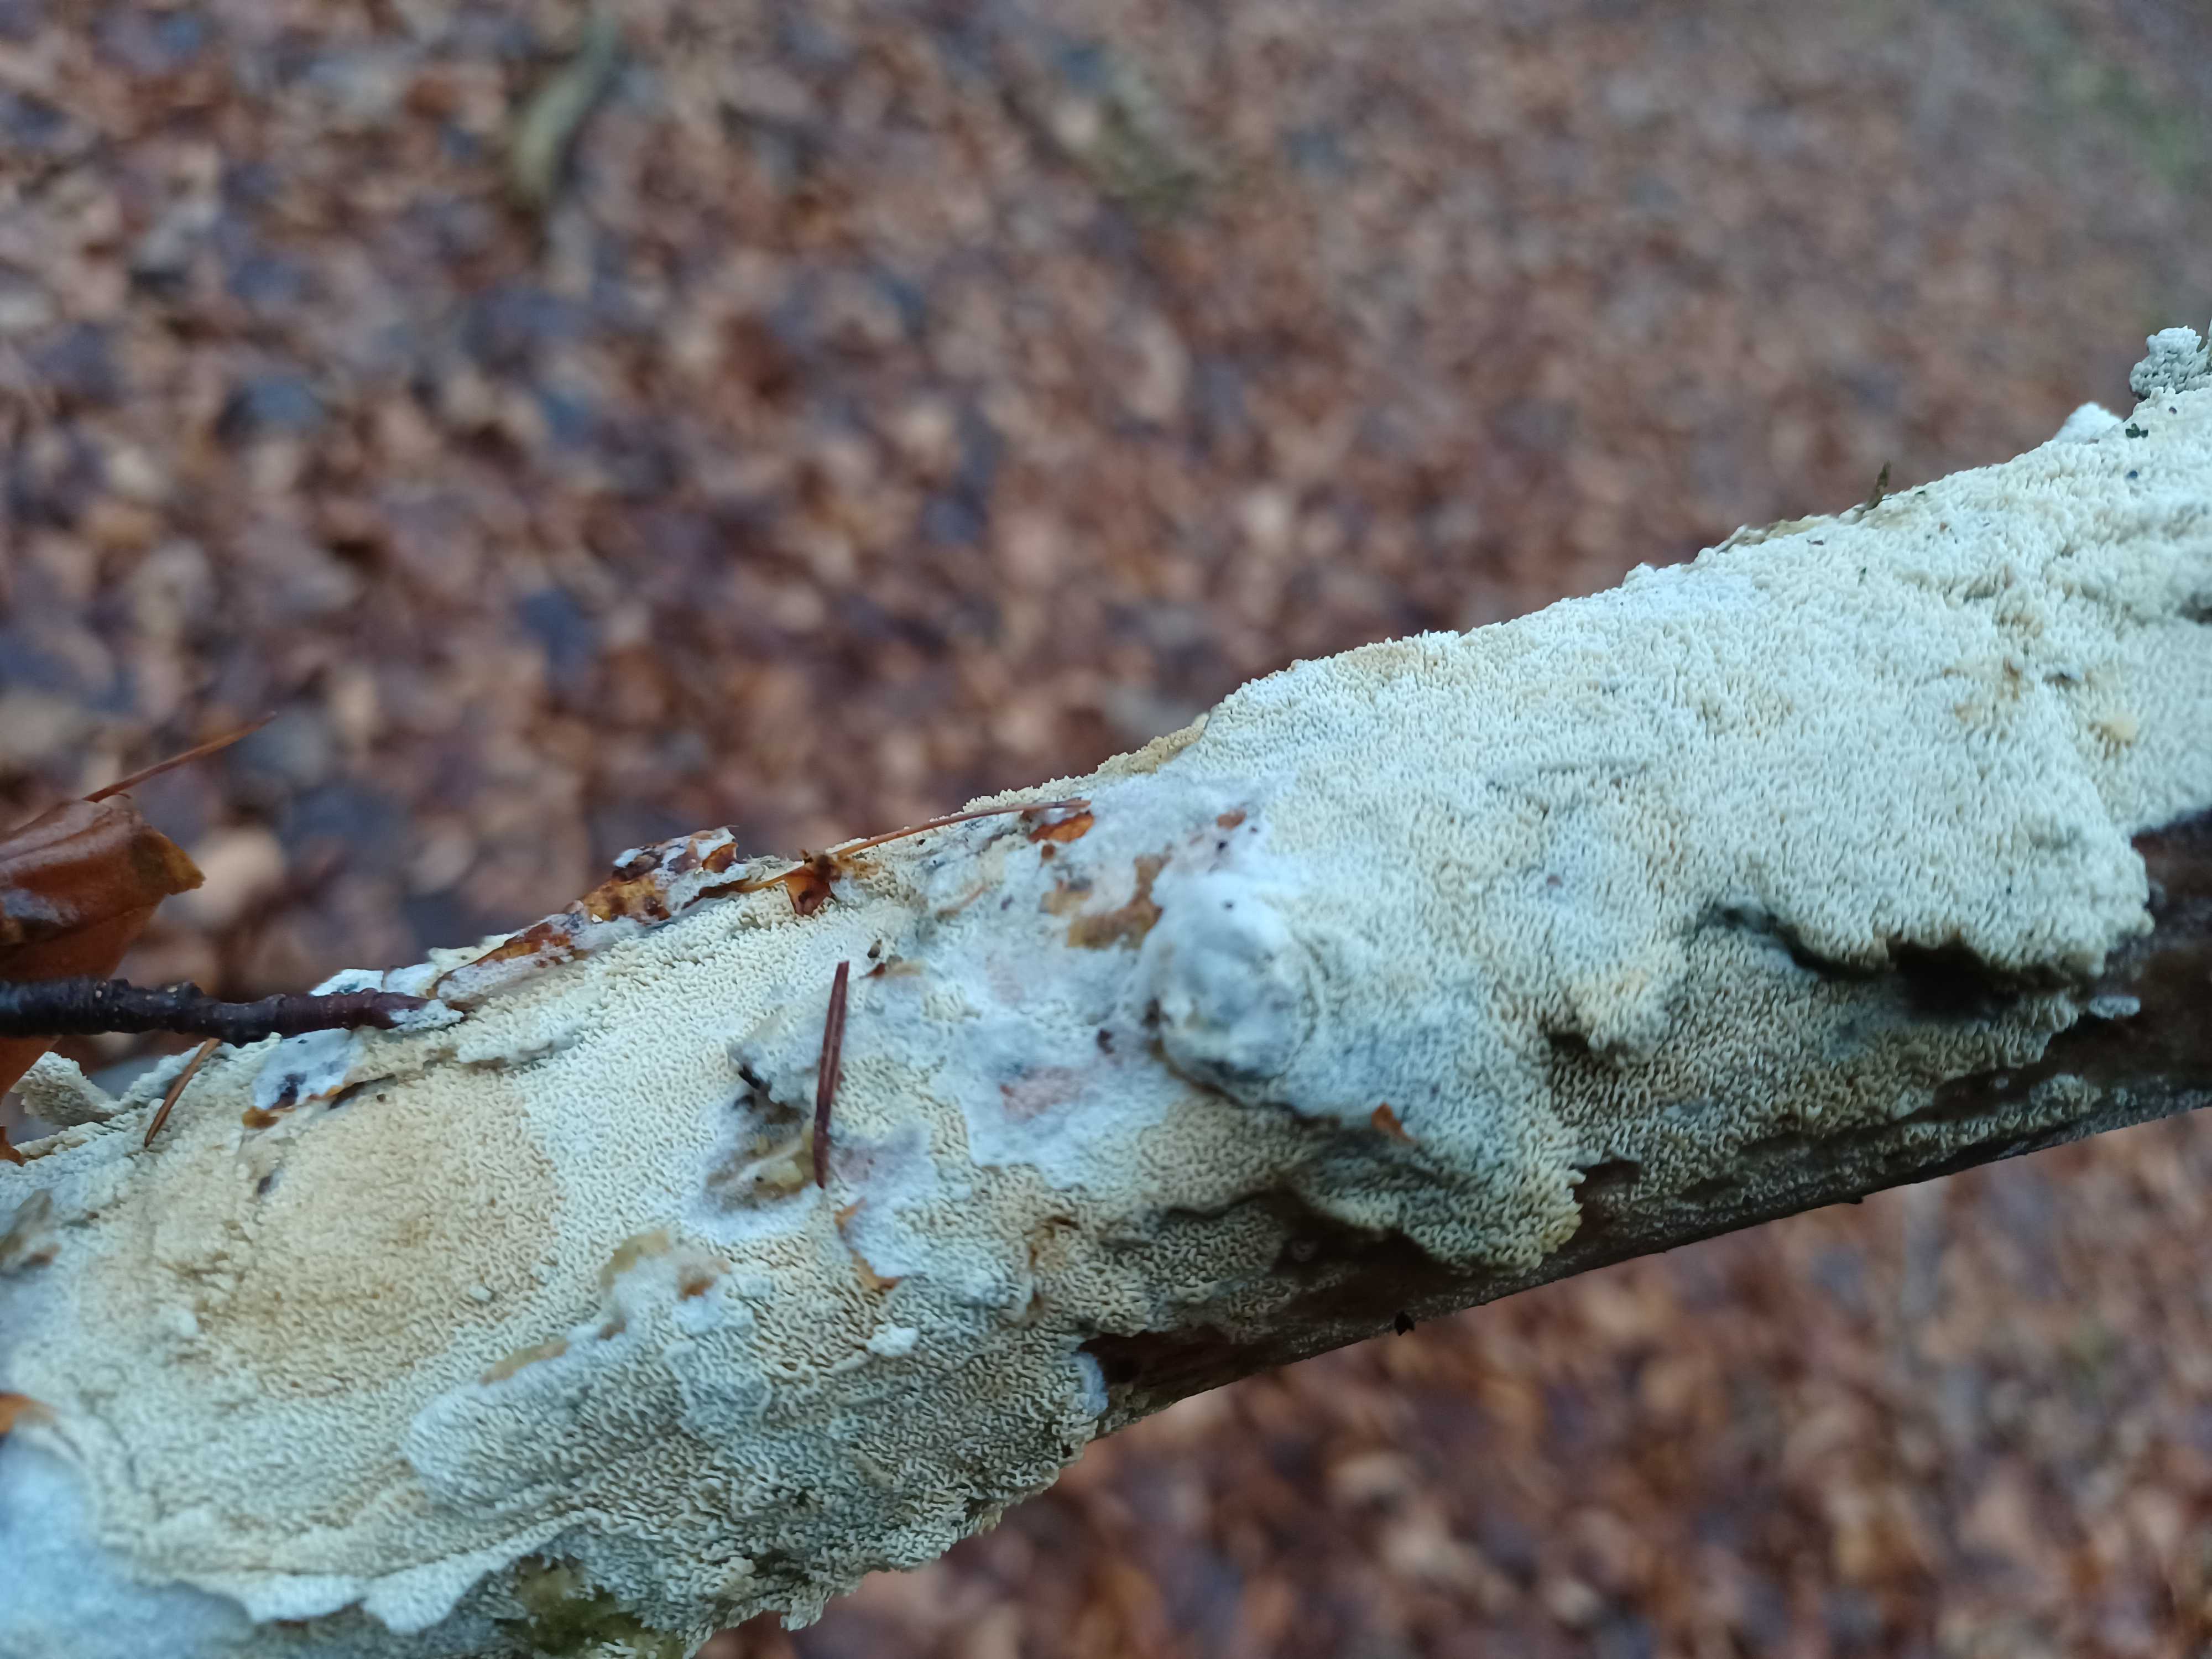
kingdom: Fungi
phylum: Basidiomycota
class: Agaricomycetes
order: Hymenochaetales
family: Schizoporaceae
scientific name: Schizoporaceae
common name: tandsvampfamilien
